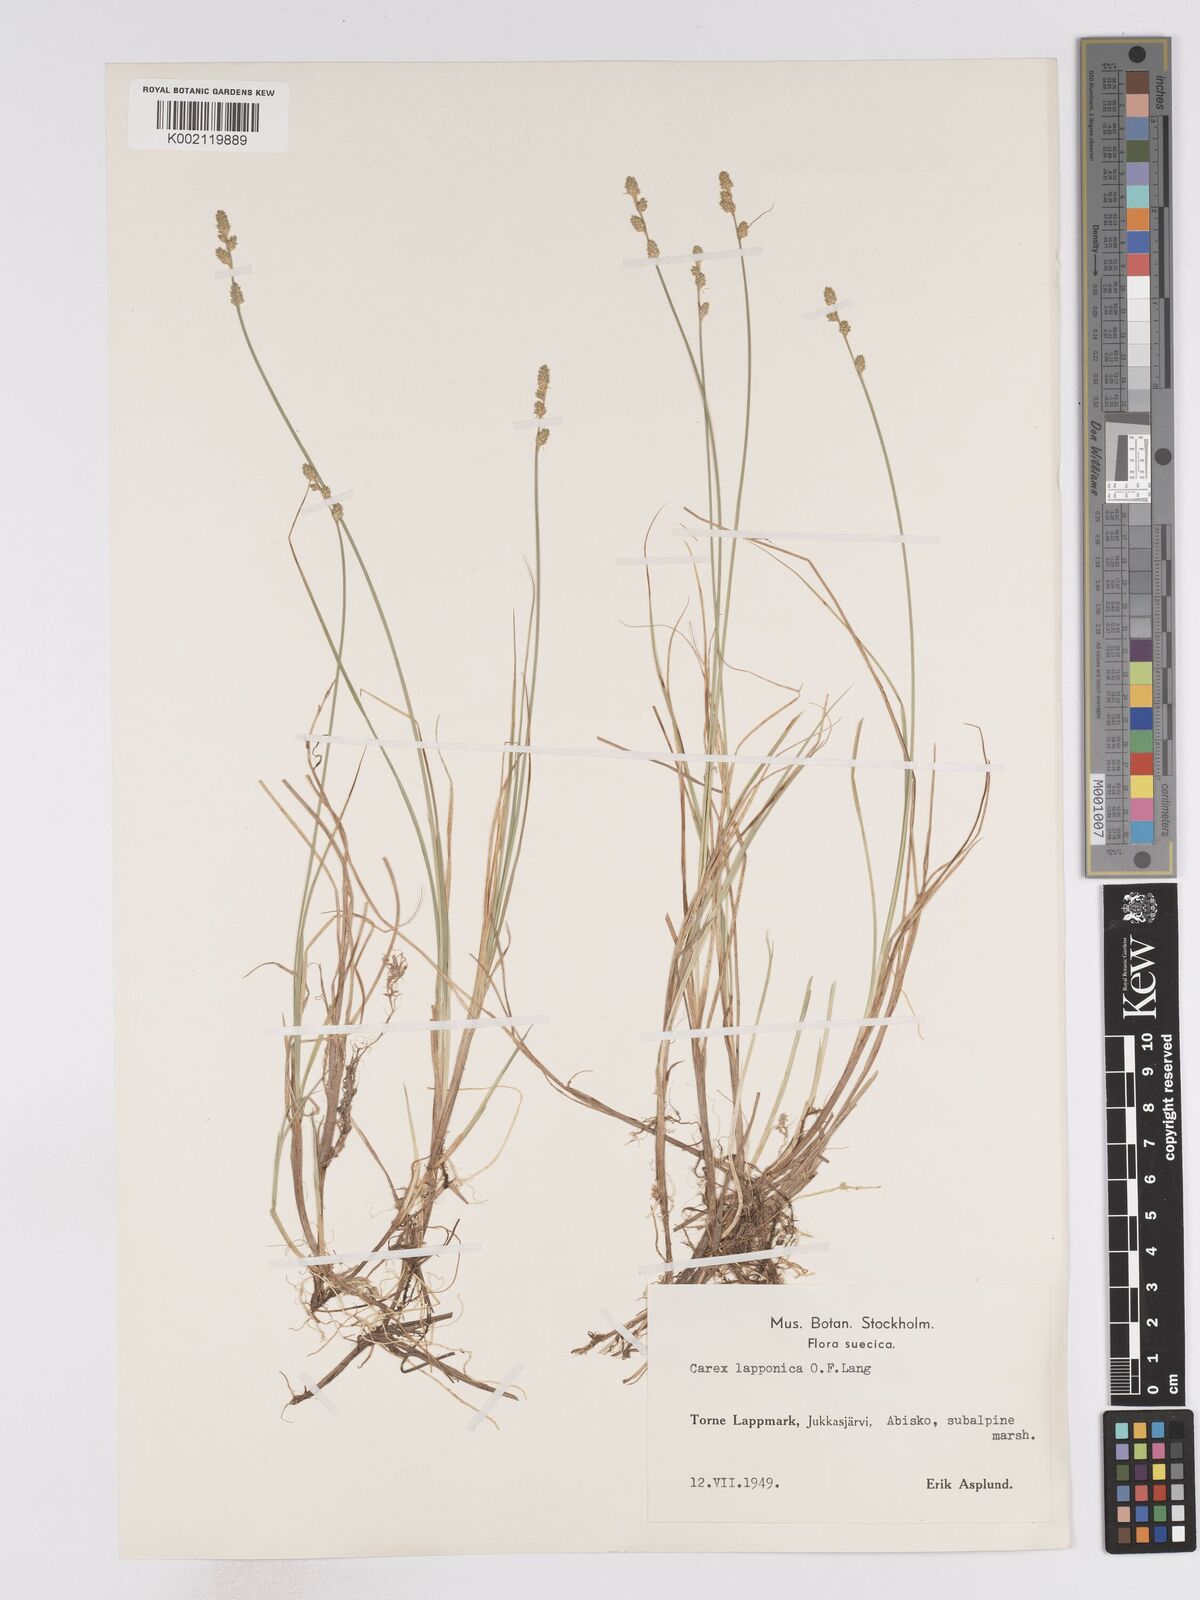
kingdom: Plantae
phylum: Tracheophyta
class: Liliopsida
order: Poales
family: Cyperaceae
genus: Carex
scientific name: Carex lapponica
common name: Lapland sedge
